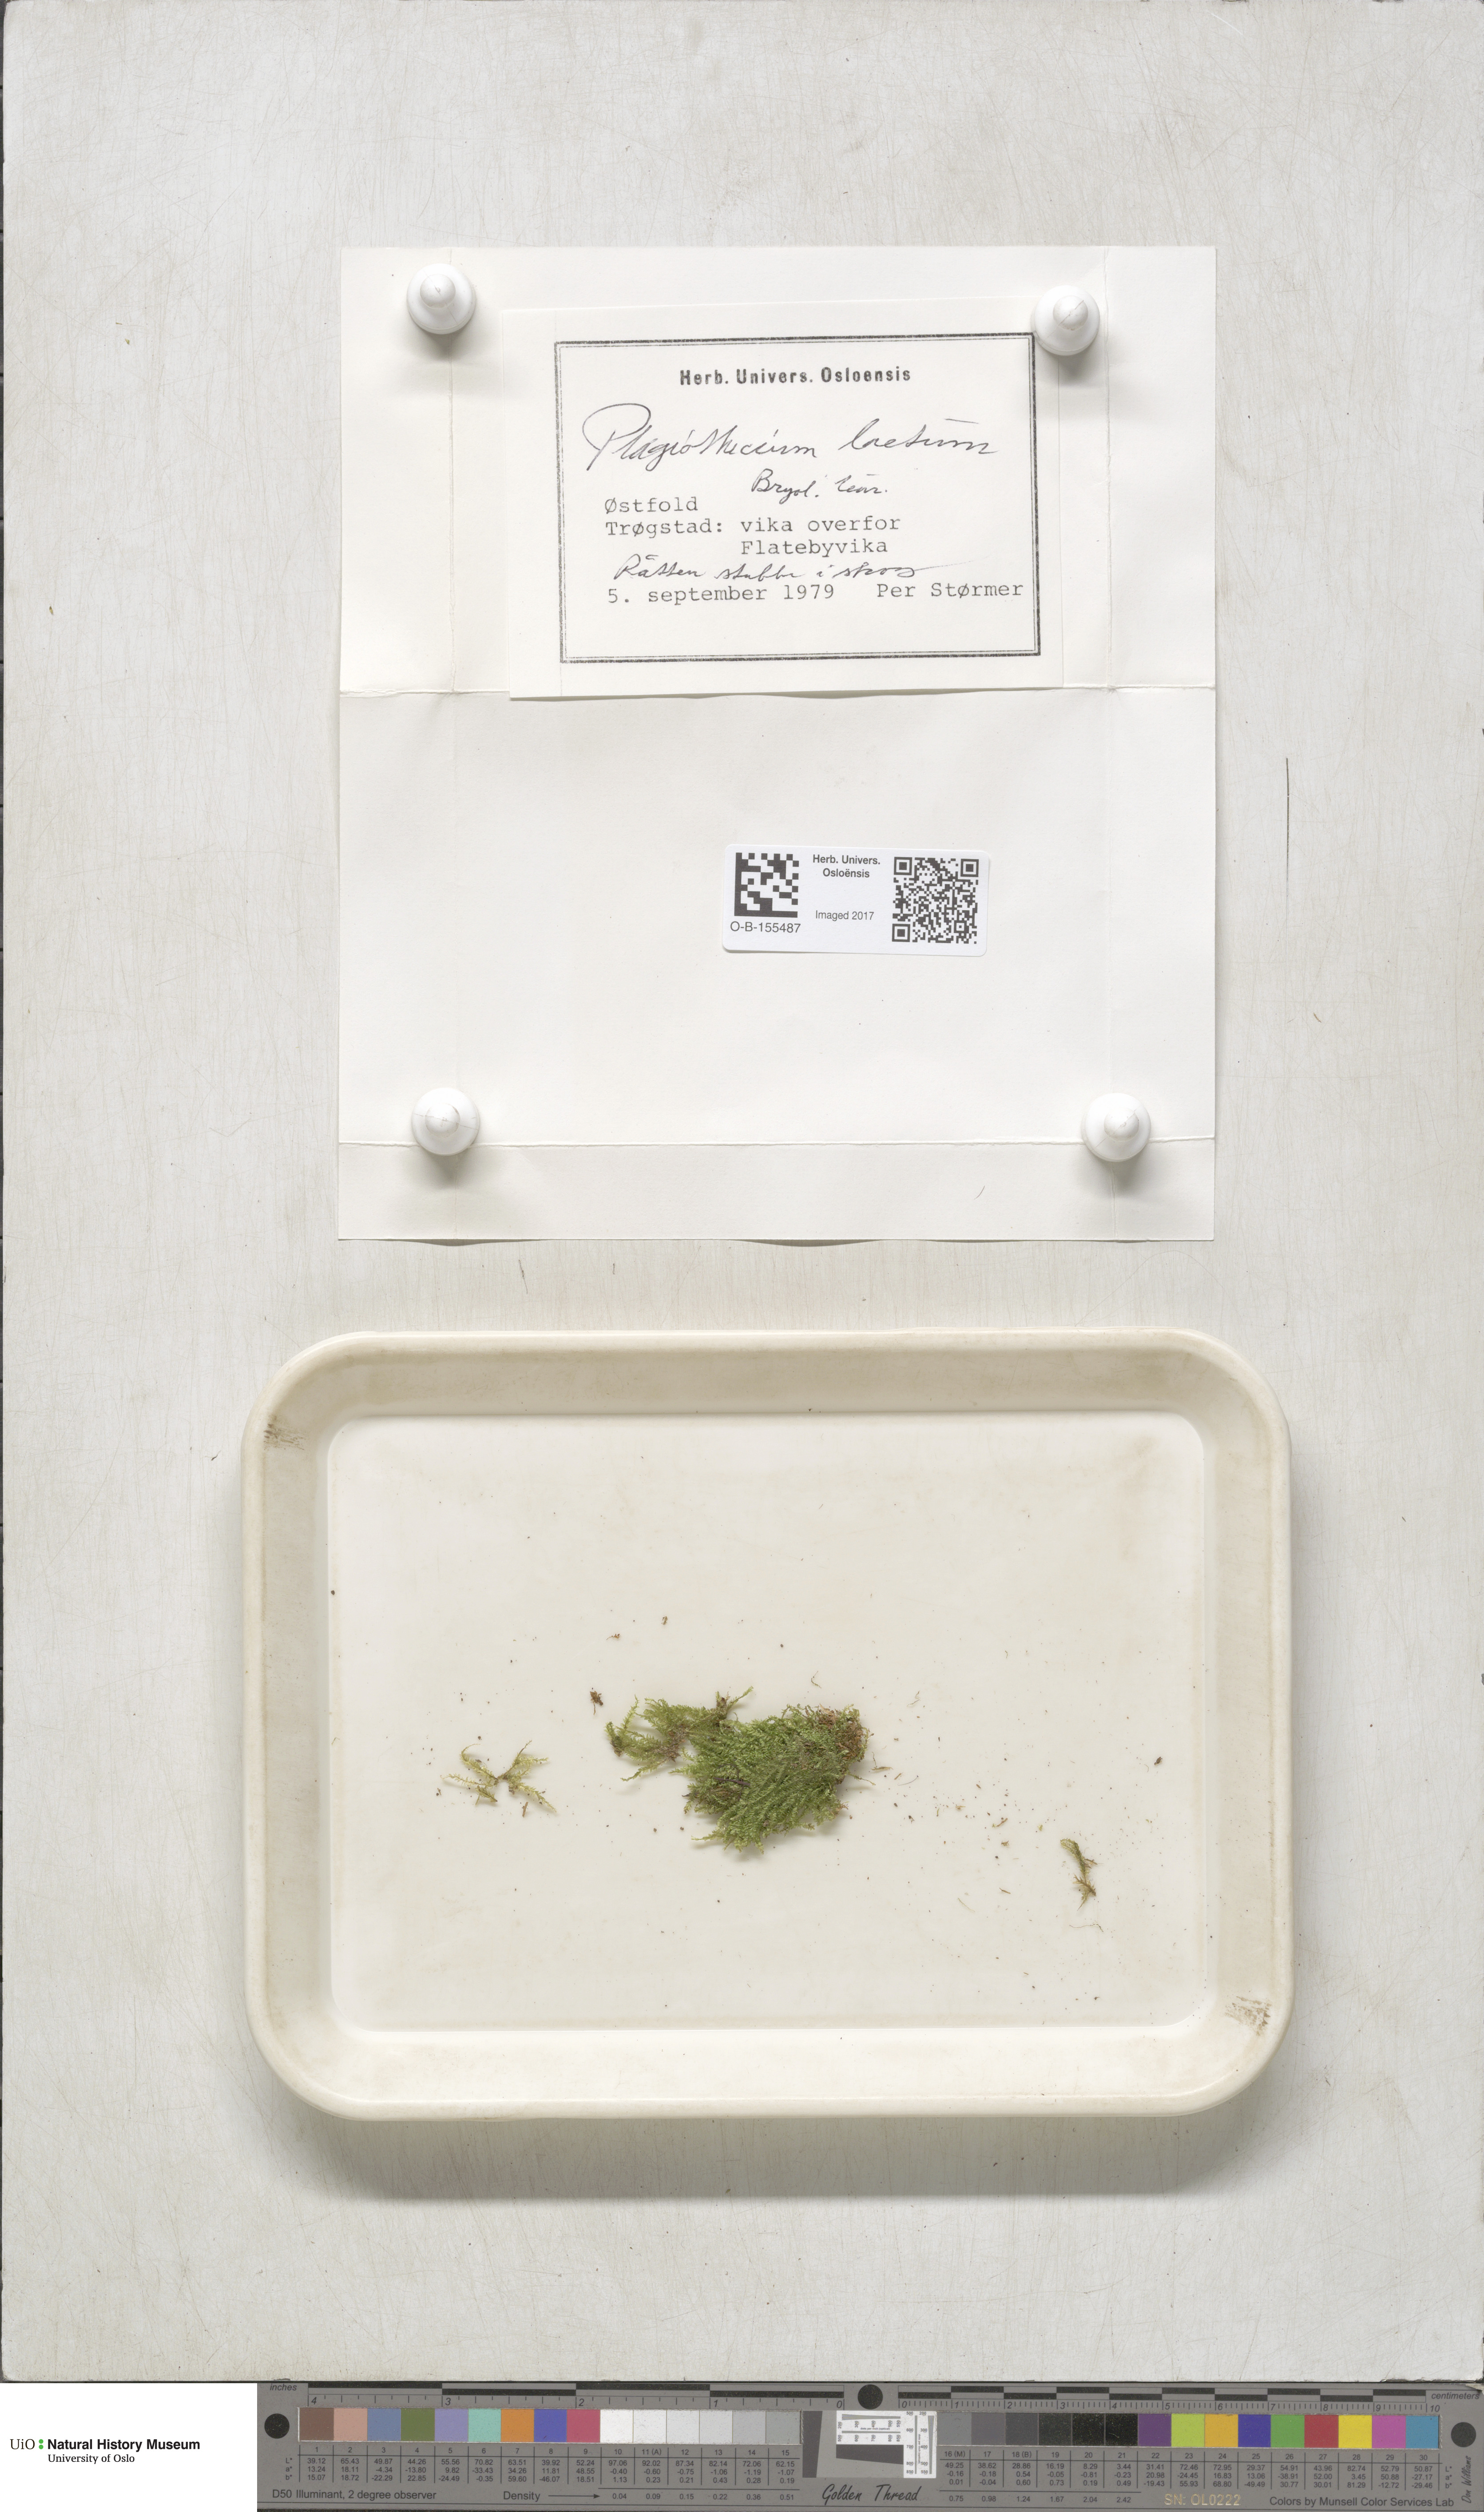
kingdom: Plantae
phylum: Bryophyta
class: Bryopsida
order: Hypnales
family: Plagiotheciaceae
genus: Plagiothecium
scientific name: Plagiothecium laetum
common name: Bright silk moss
